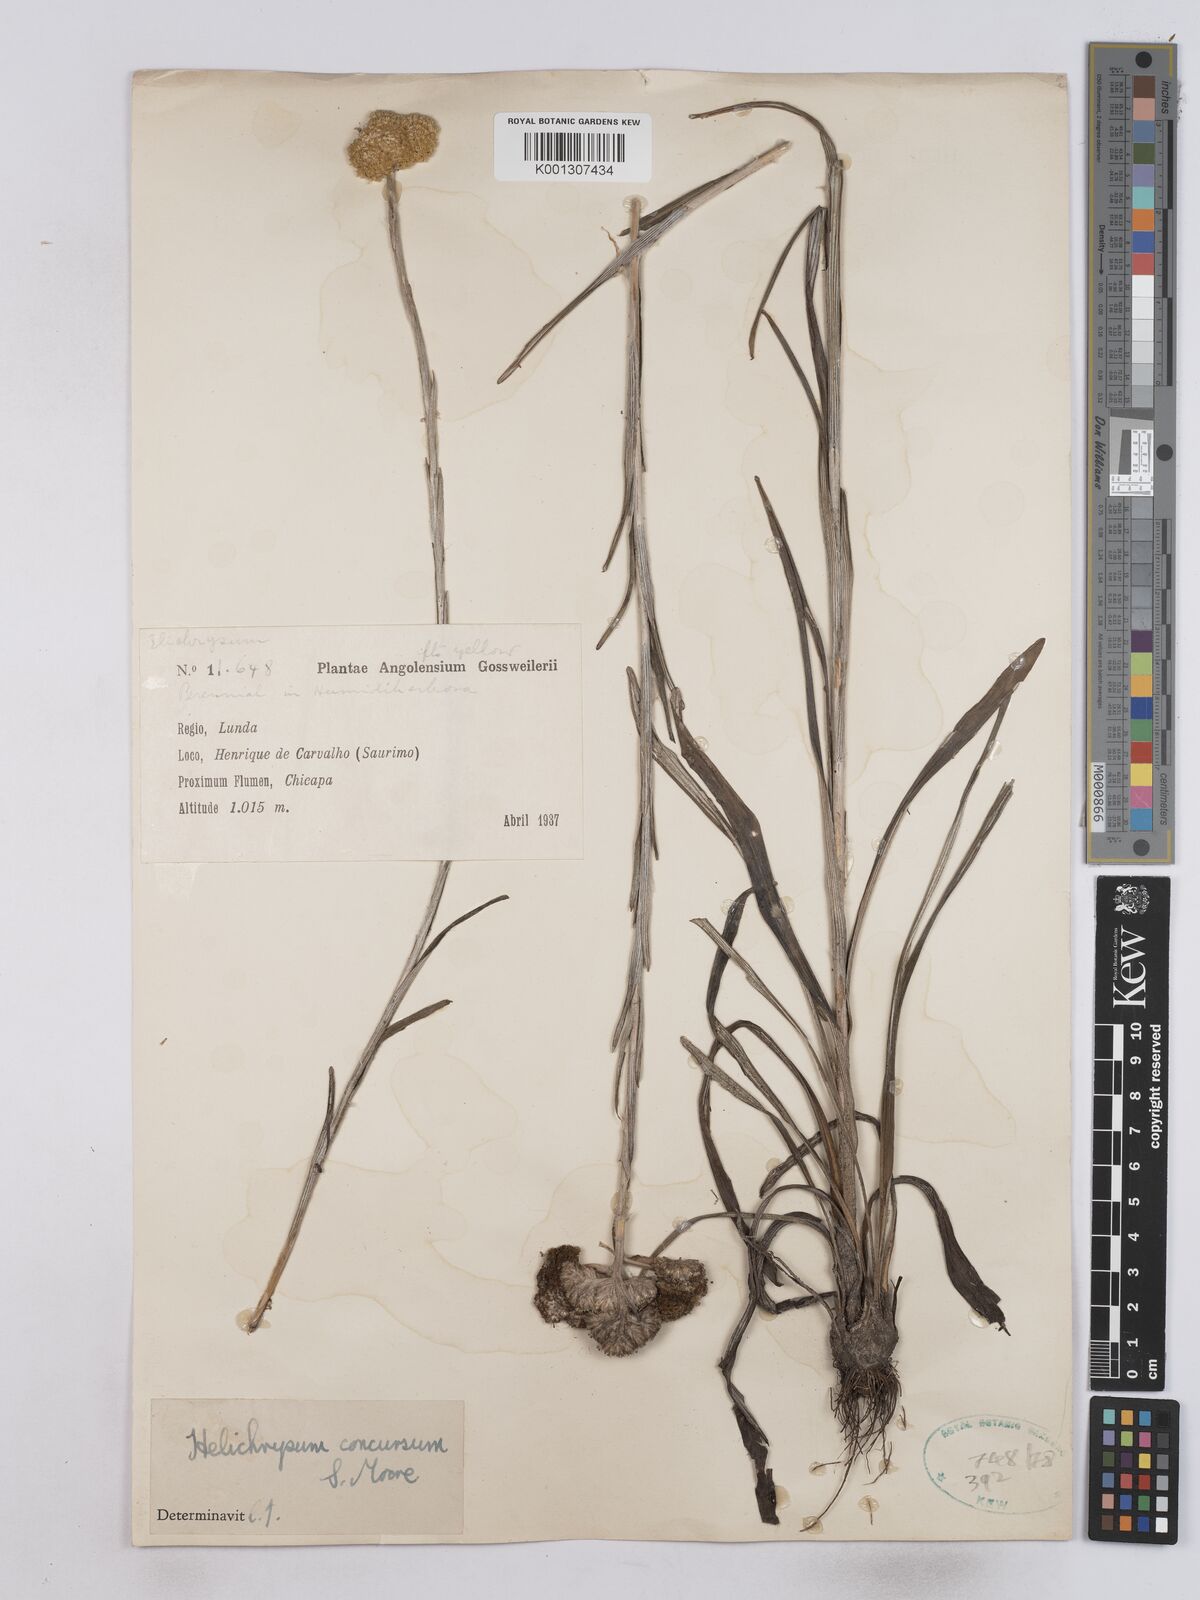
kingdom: Plantae
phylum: Tracheophyta
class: Magnoliopsida
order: Asterales
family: Asteraceae
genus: Helichrysum
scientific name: Helichrysum concursum
